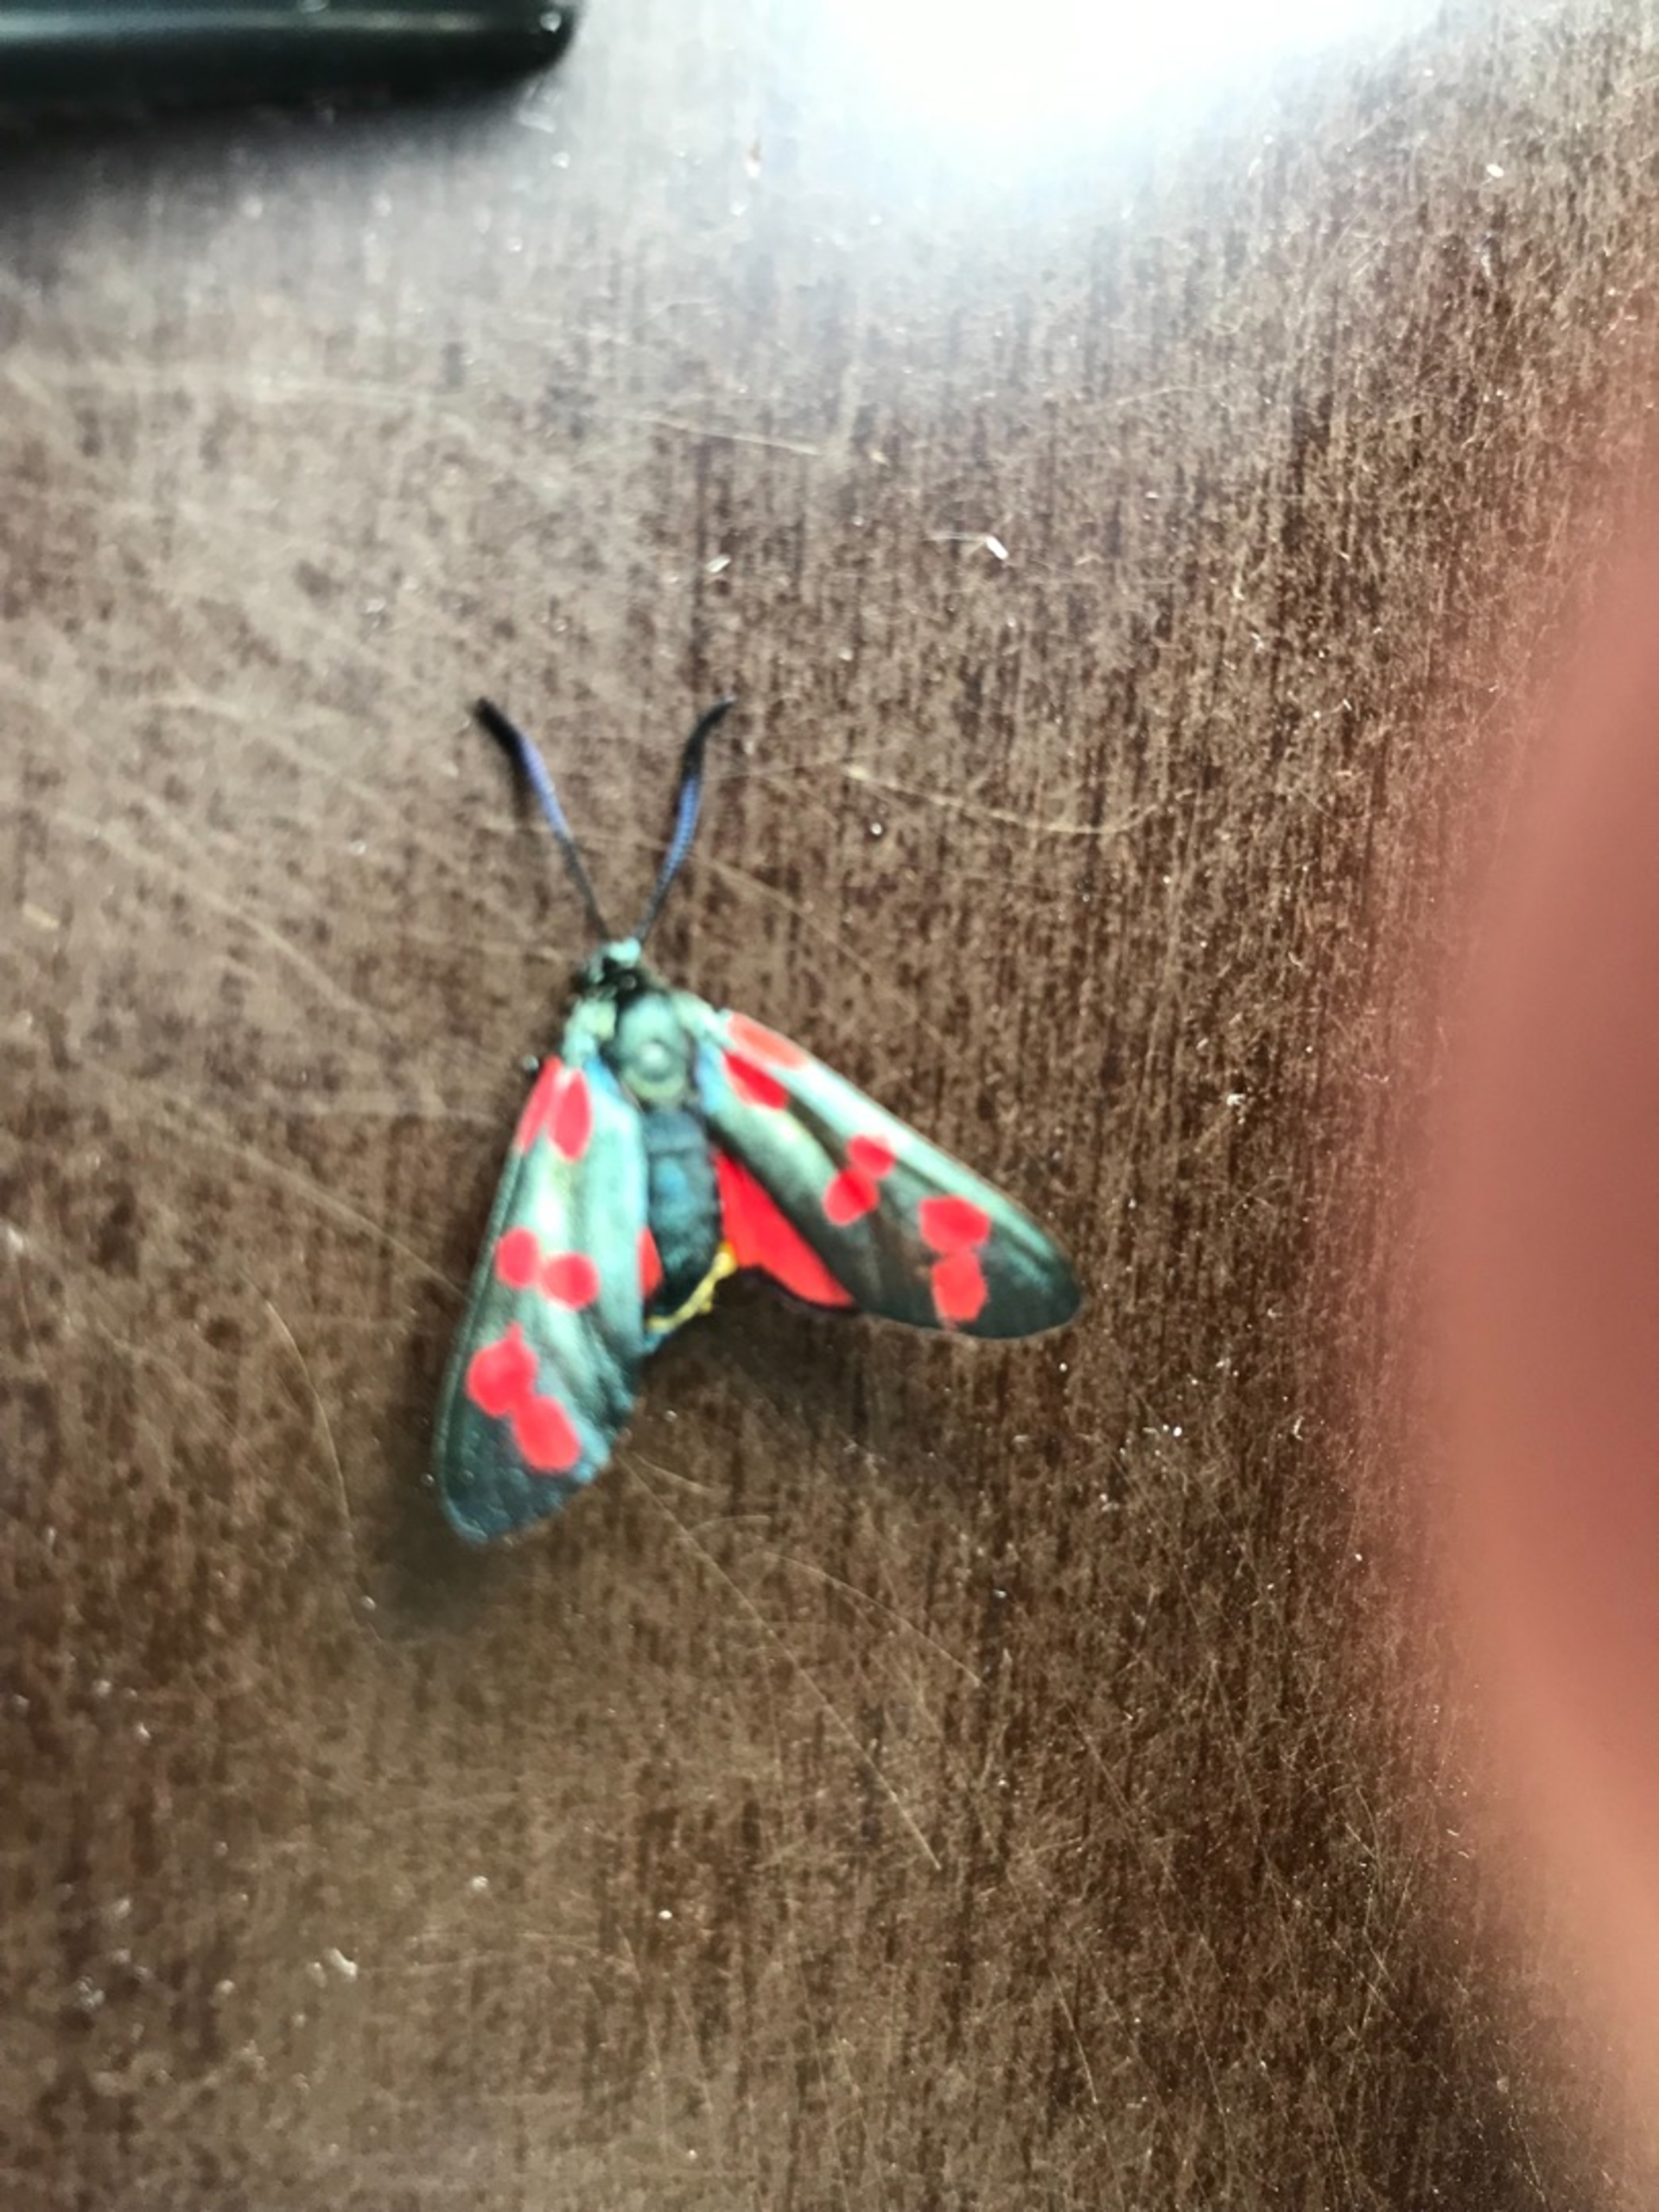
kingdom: Animalia
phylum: Arthropoda
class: Insecta
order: Lepidoptera
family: Zygaenidae
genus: Zygaena
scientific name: Zygaena filipendulae
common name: Seksplettet køllesværmer
